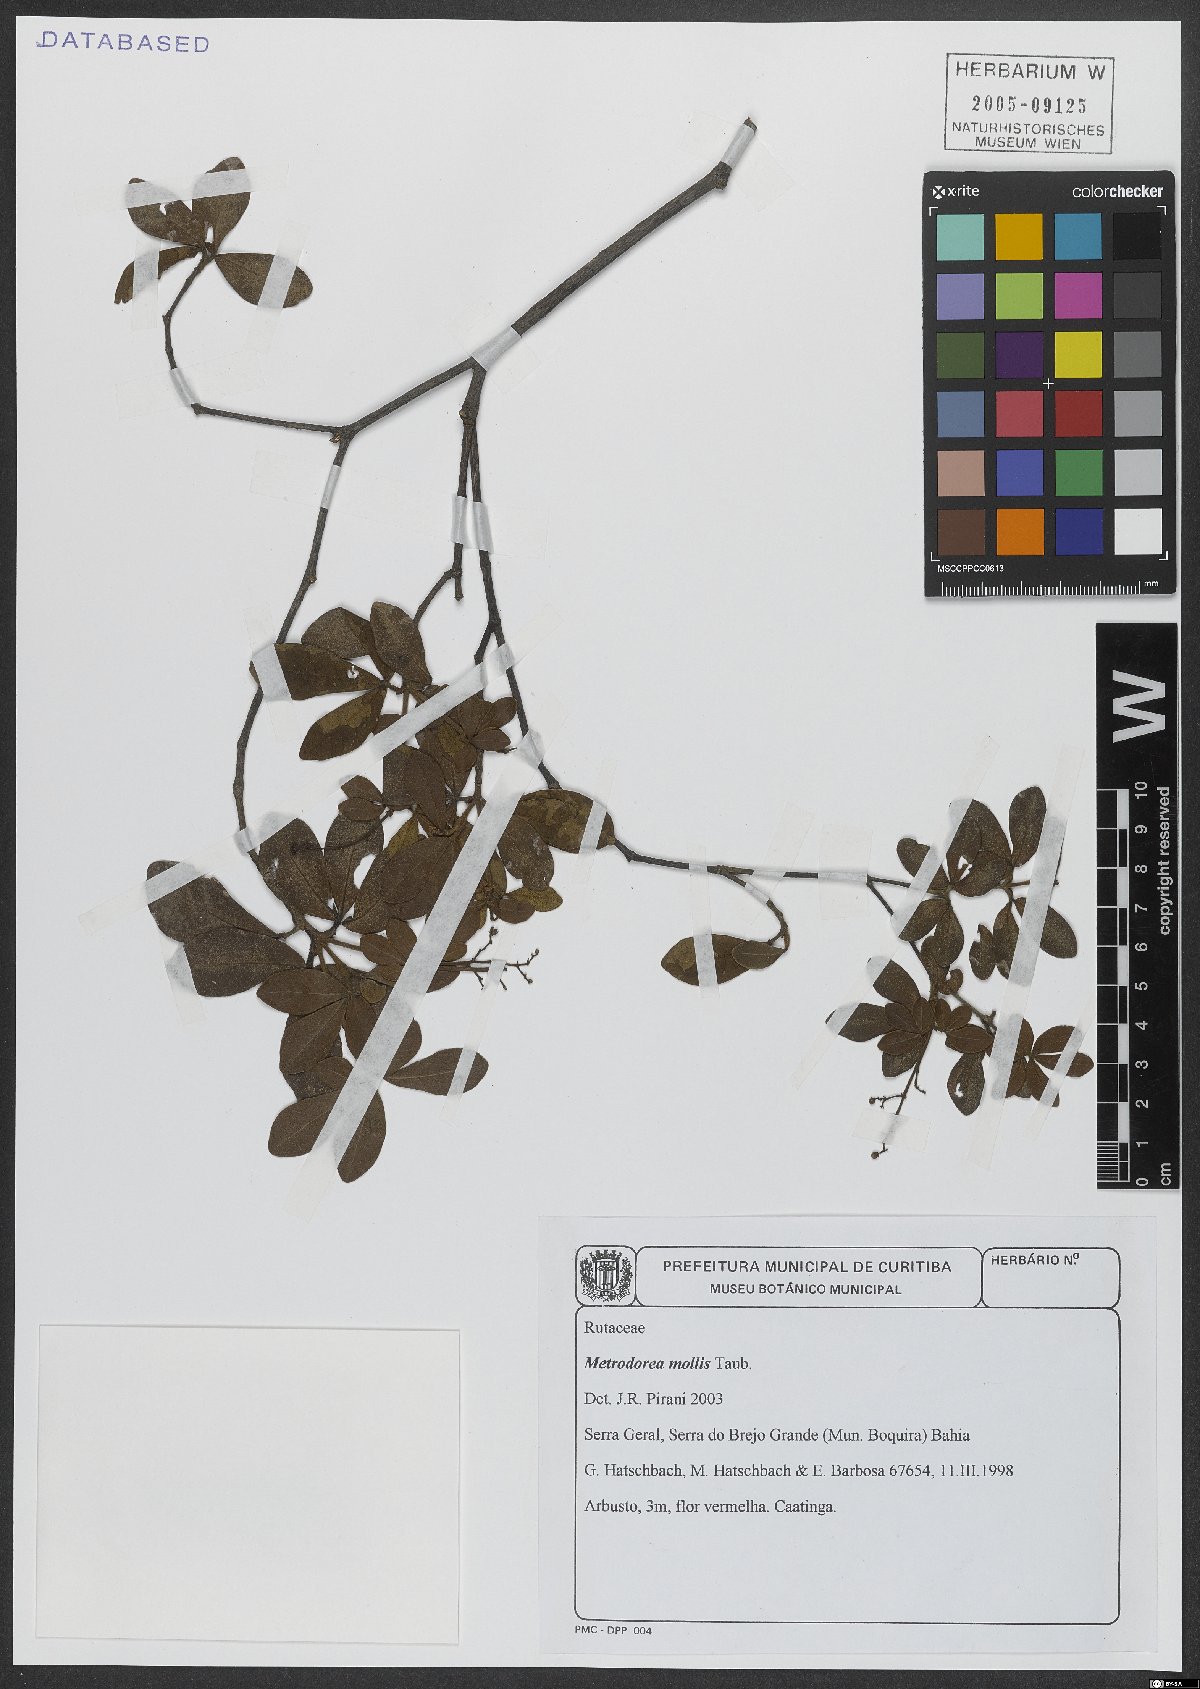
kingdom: Plantae
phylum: Tracheophyta
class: Magnoliopsida
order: Sapindales
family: Rutaceae
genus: Metrodorea
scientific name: Metrodorea mollis
